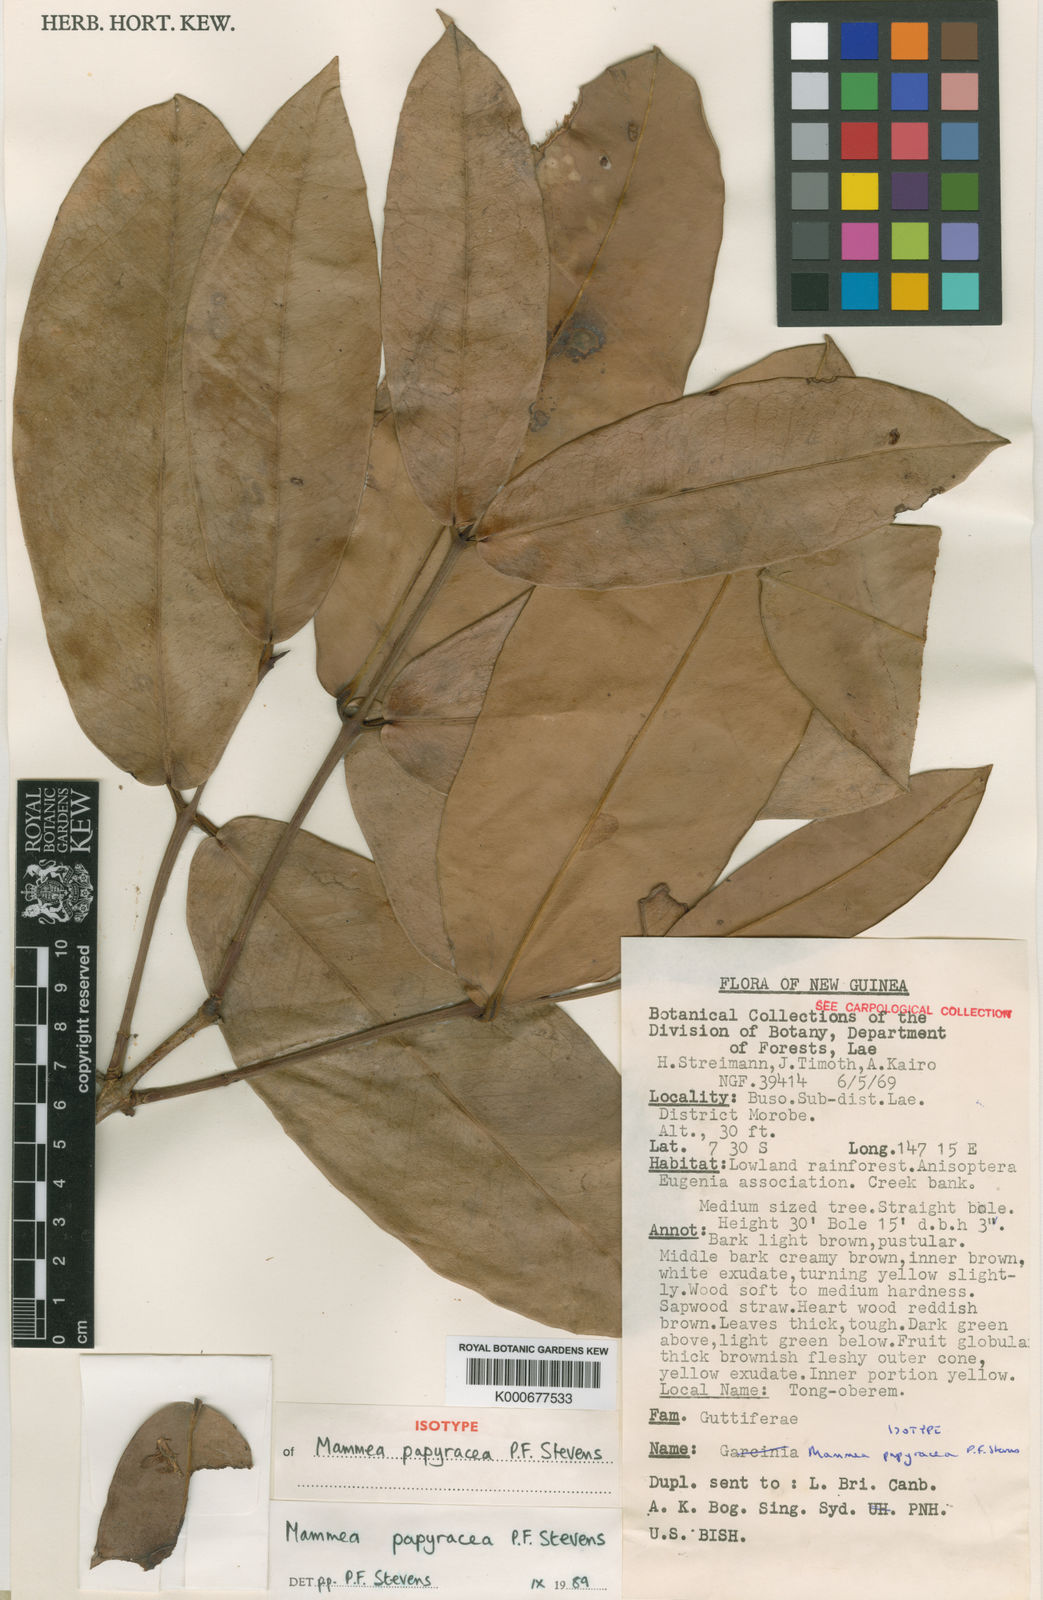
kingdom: Plantae
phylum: Tracheophyta
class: Magnoliopsida
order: Malpighiales
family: Calophyllaceae
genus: Mammea
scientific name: Mammea papyracea
